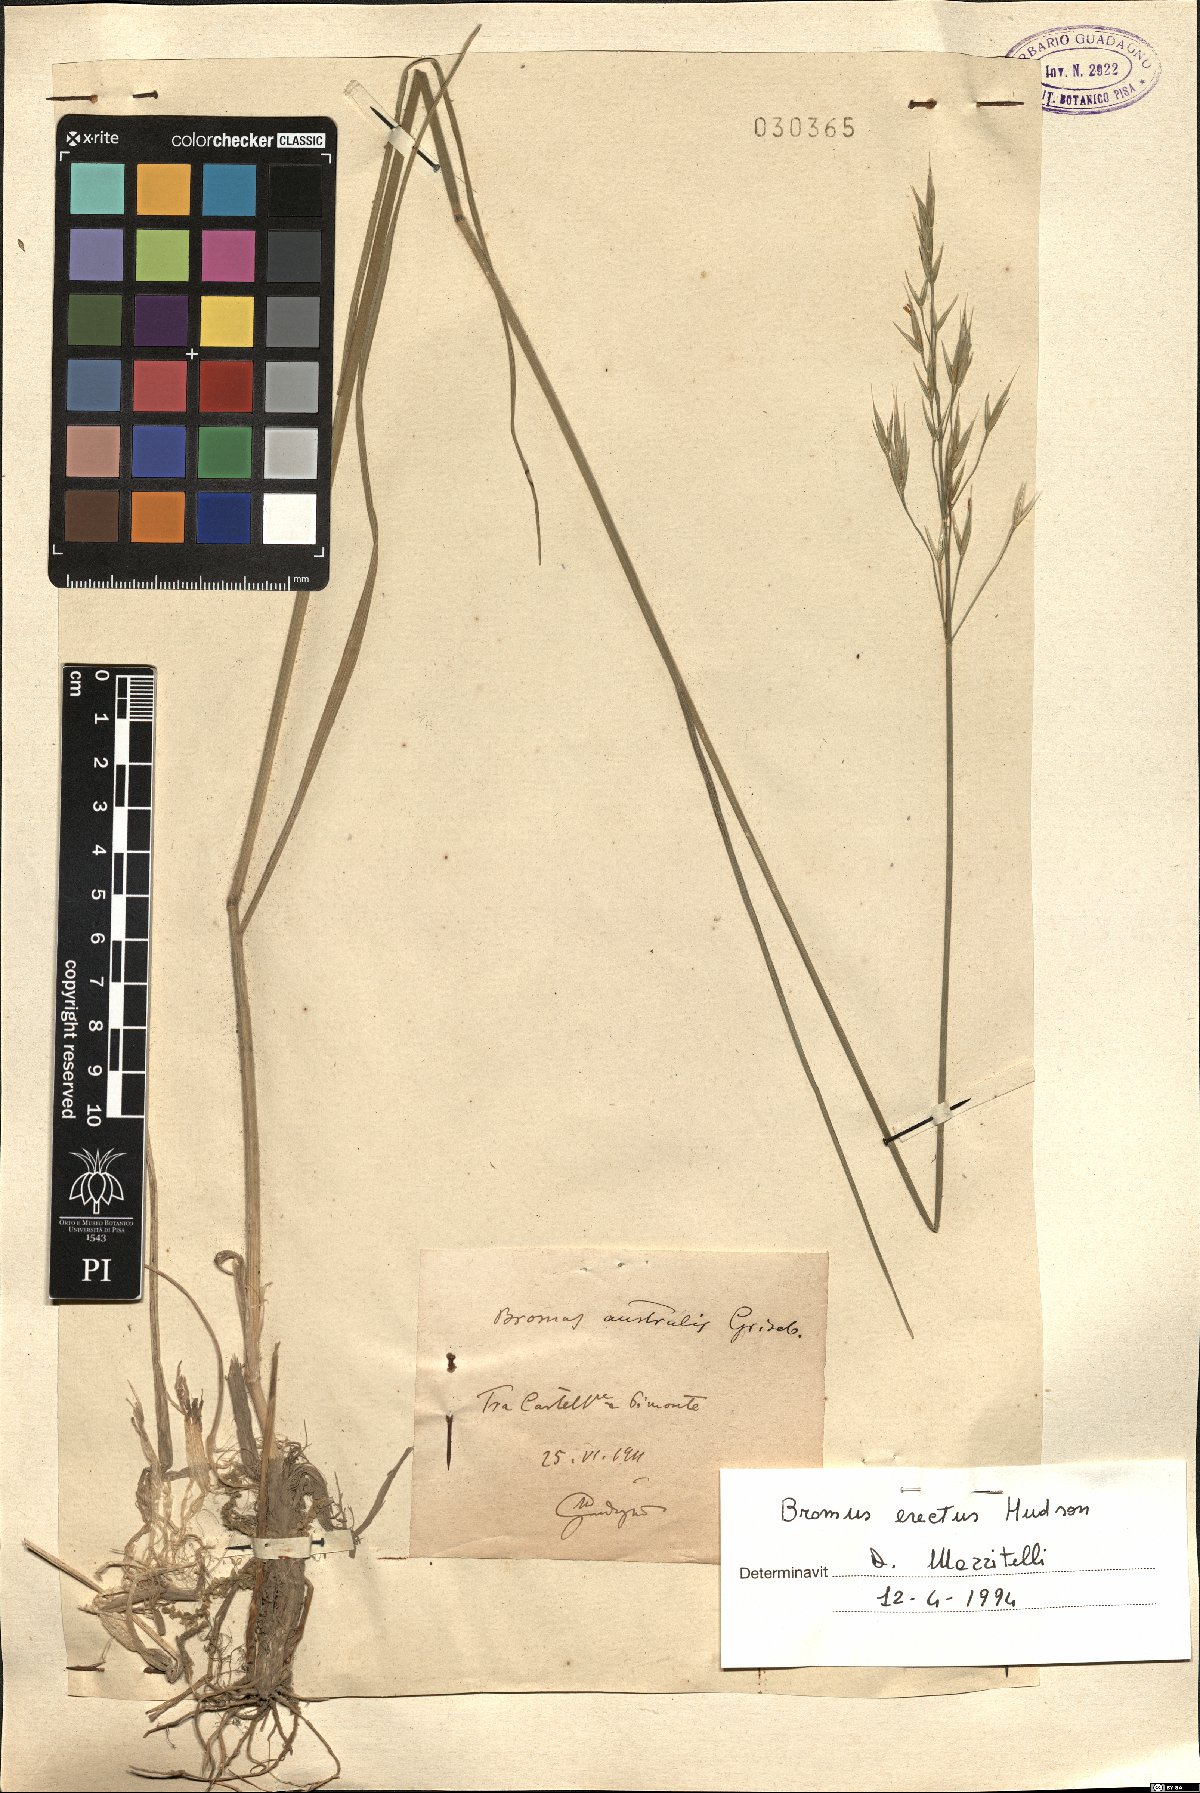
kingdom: Plantae
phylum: Tracheophyta
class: Liliopsida
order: Poales
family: Poaceae
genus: Bromus
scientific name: Bromus erectus
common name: Erect brome
